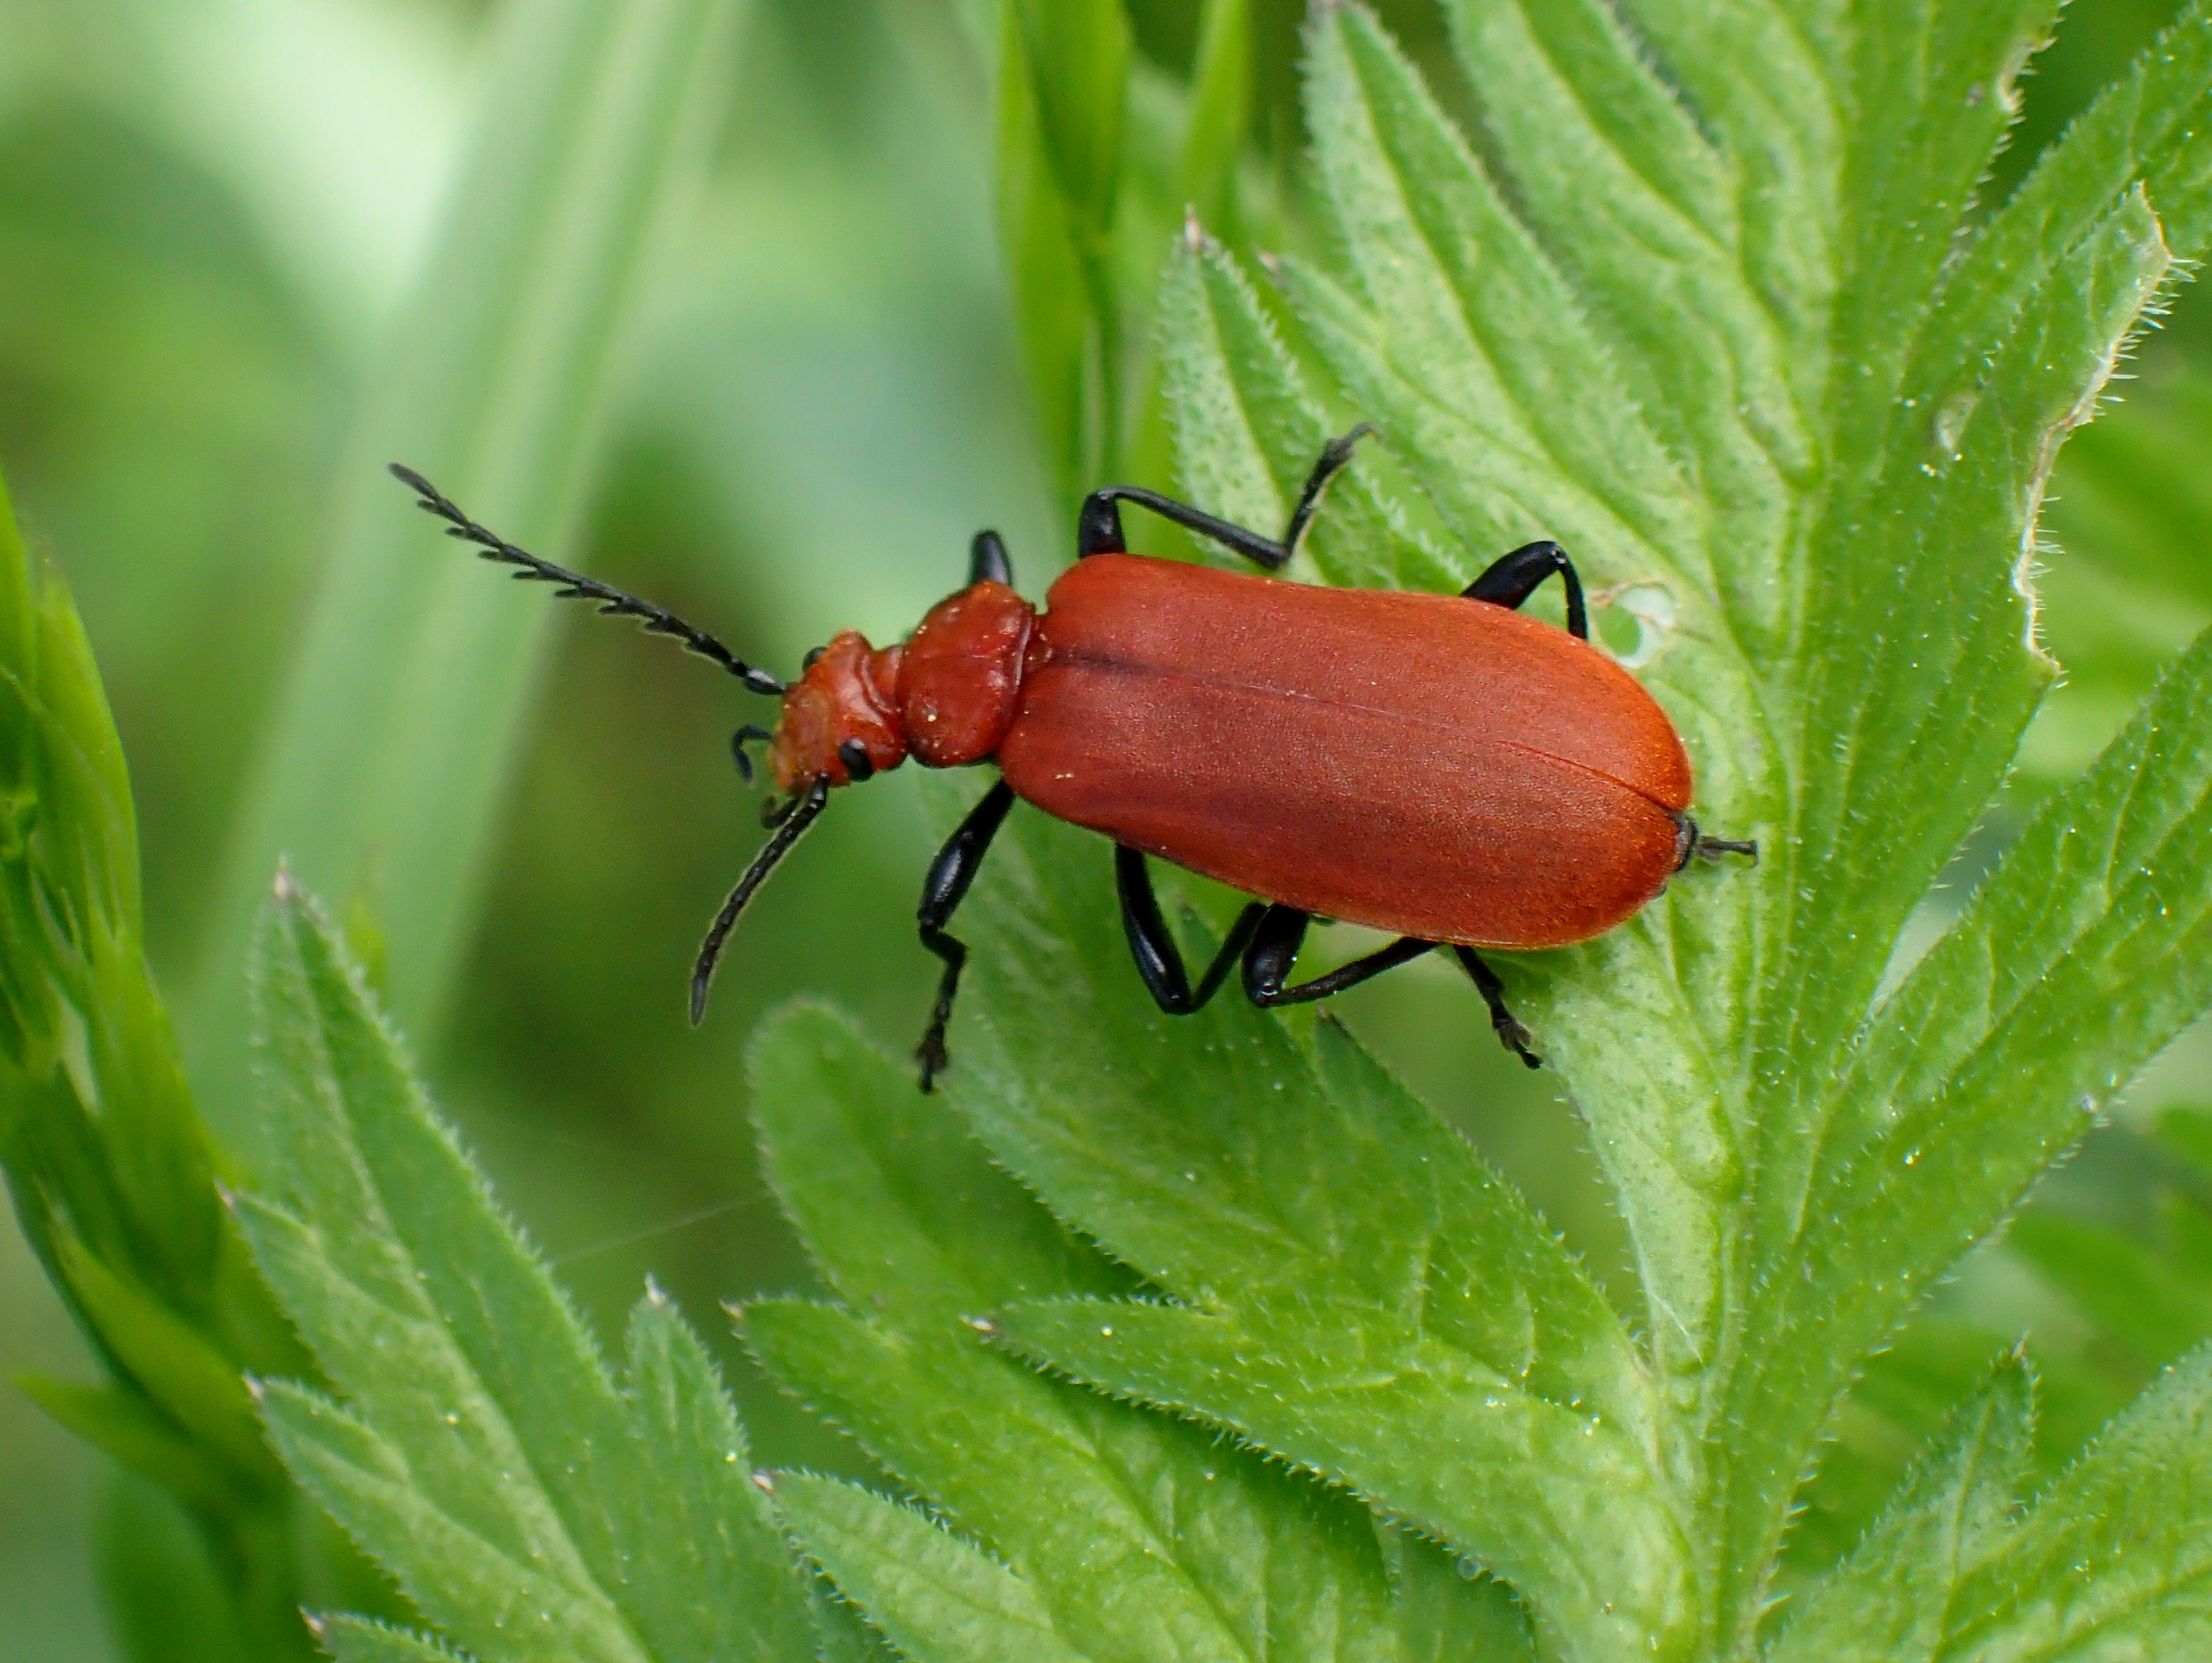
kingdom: Animalia
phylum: Arthropoda
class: Insecta
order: Coleoptera
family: Pyrochroidae
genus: Pyrochroa
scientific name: Pyrochroa serraticornis
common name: Rødhovedet kardinalbille
